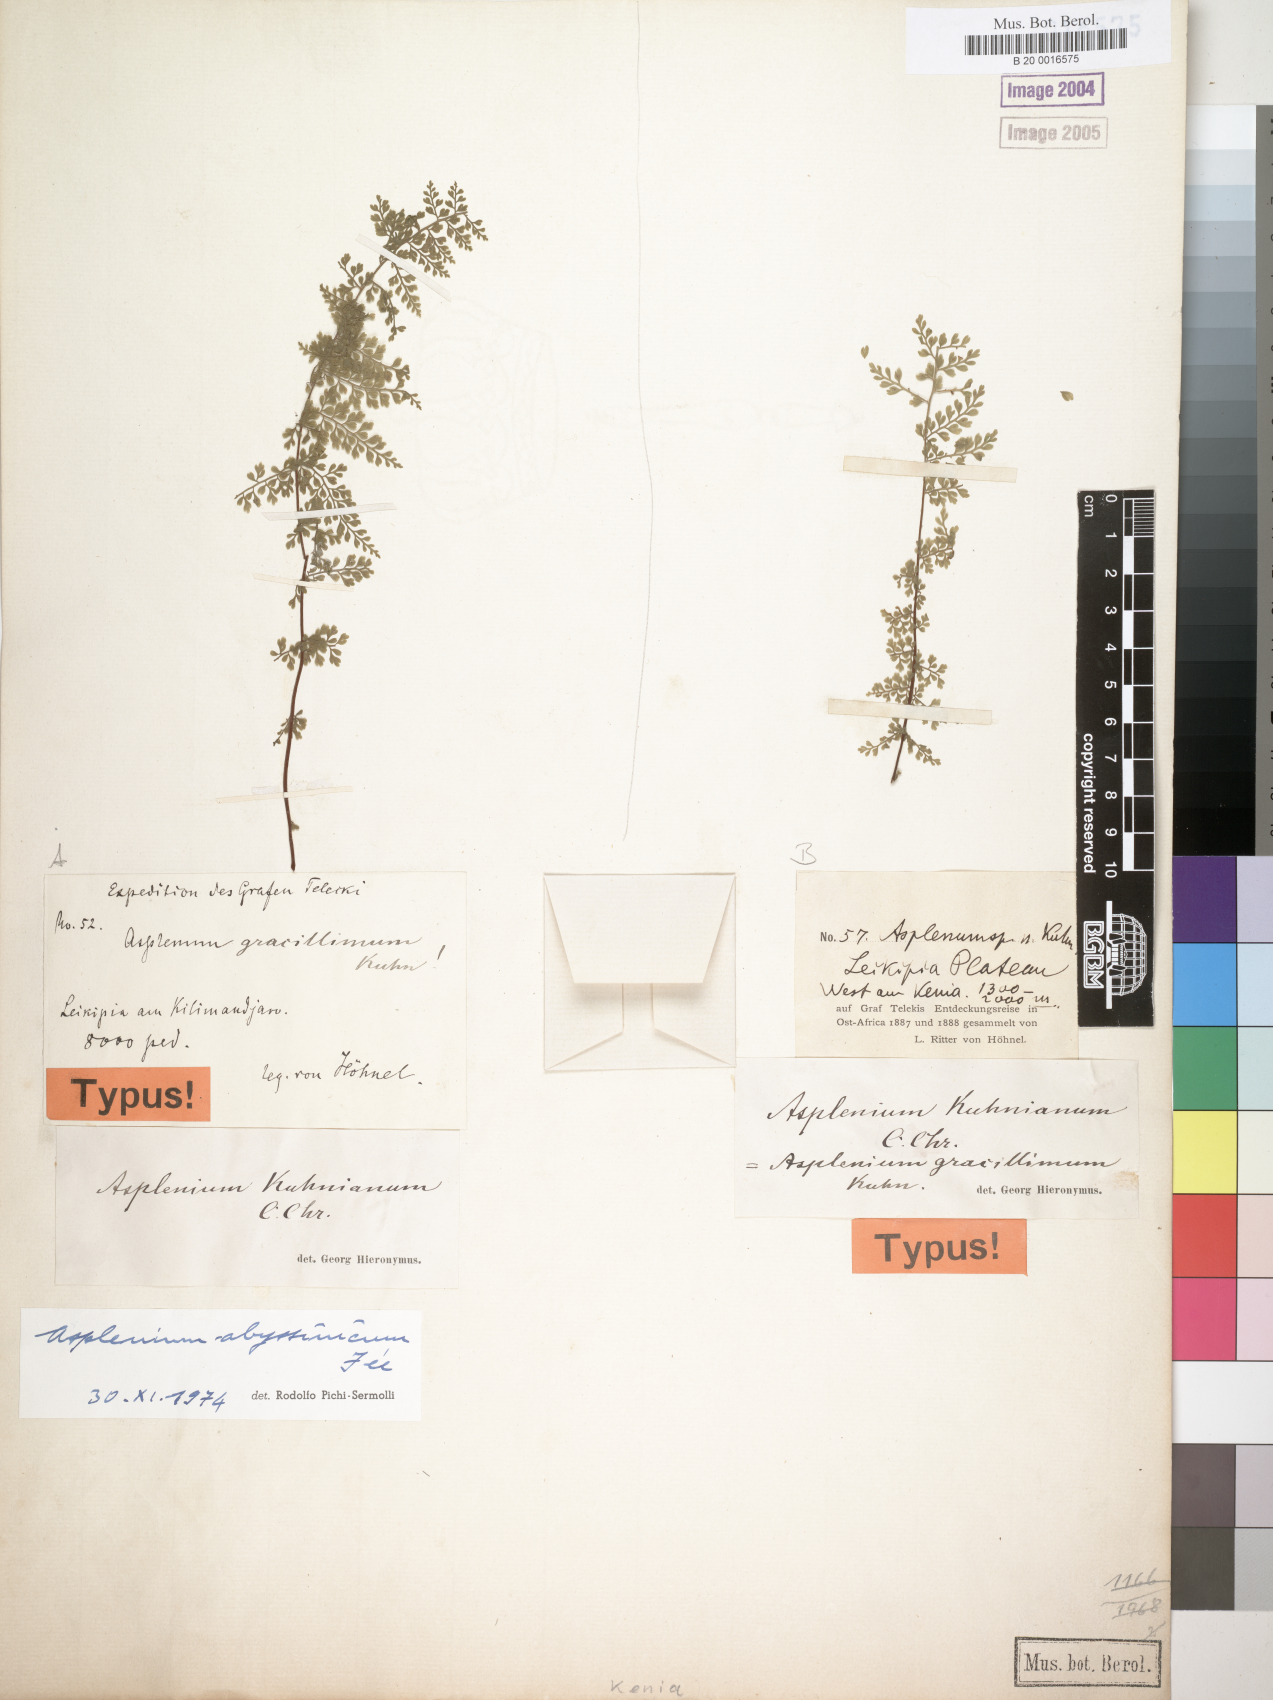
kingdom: Plantae
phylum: Tracheophyta
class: Polypodiopsida
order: Polypodiales
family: Aspleniaceae
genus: Asplenium
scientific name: Asplenium abyssinicum
